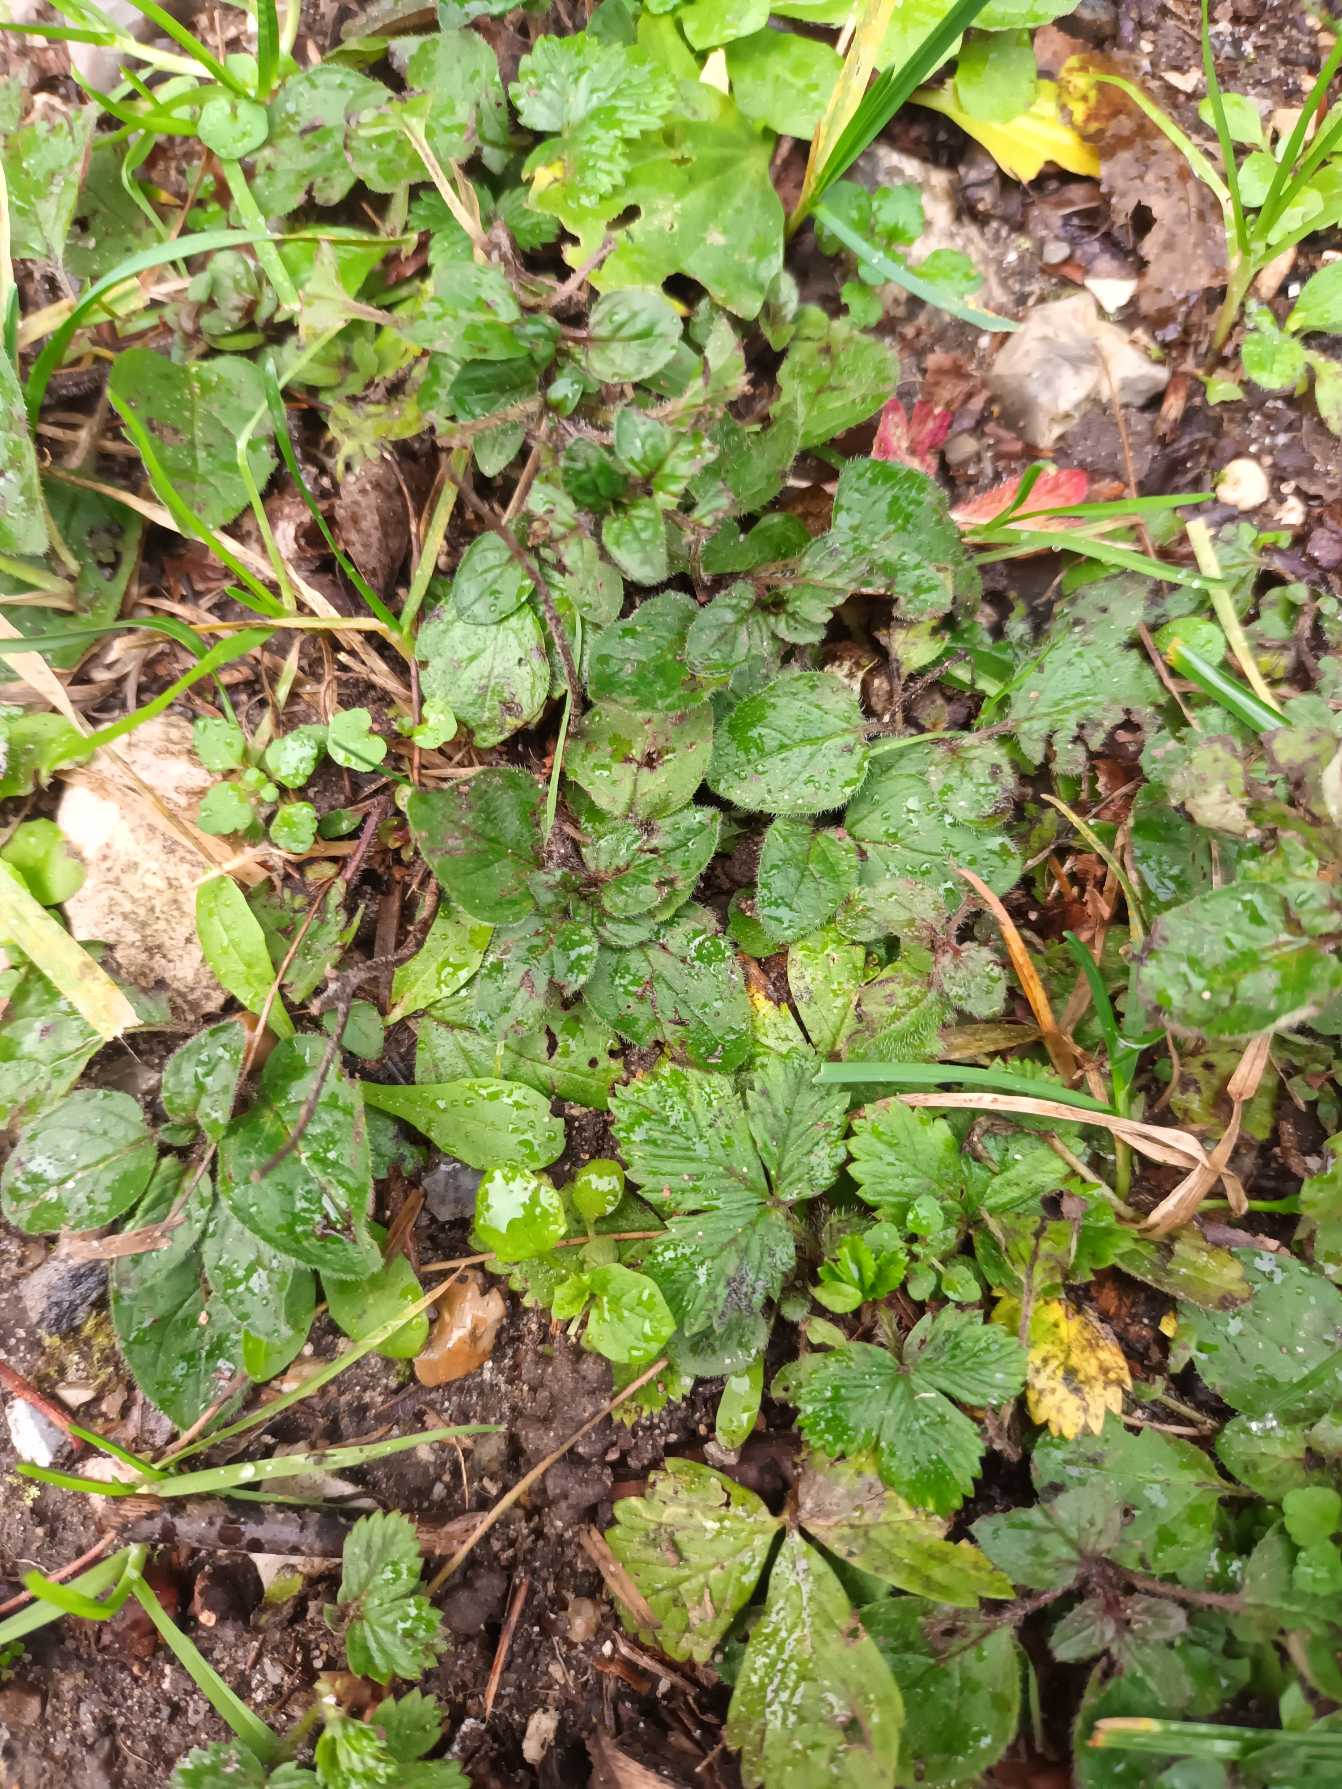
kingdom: Plantae
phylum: Tracheophyta
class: Magnoliopsida
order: Lamiales
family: Lamiaceae
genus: Prunella
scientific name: Prunella vulgaris
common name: Almindelig brunelle
